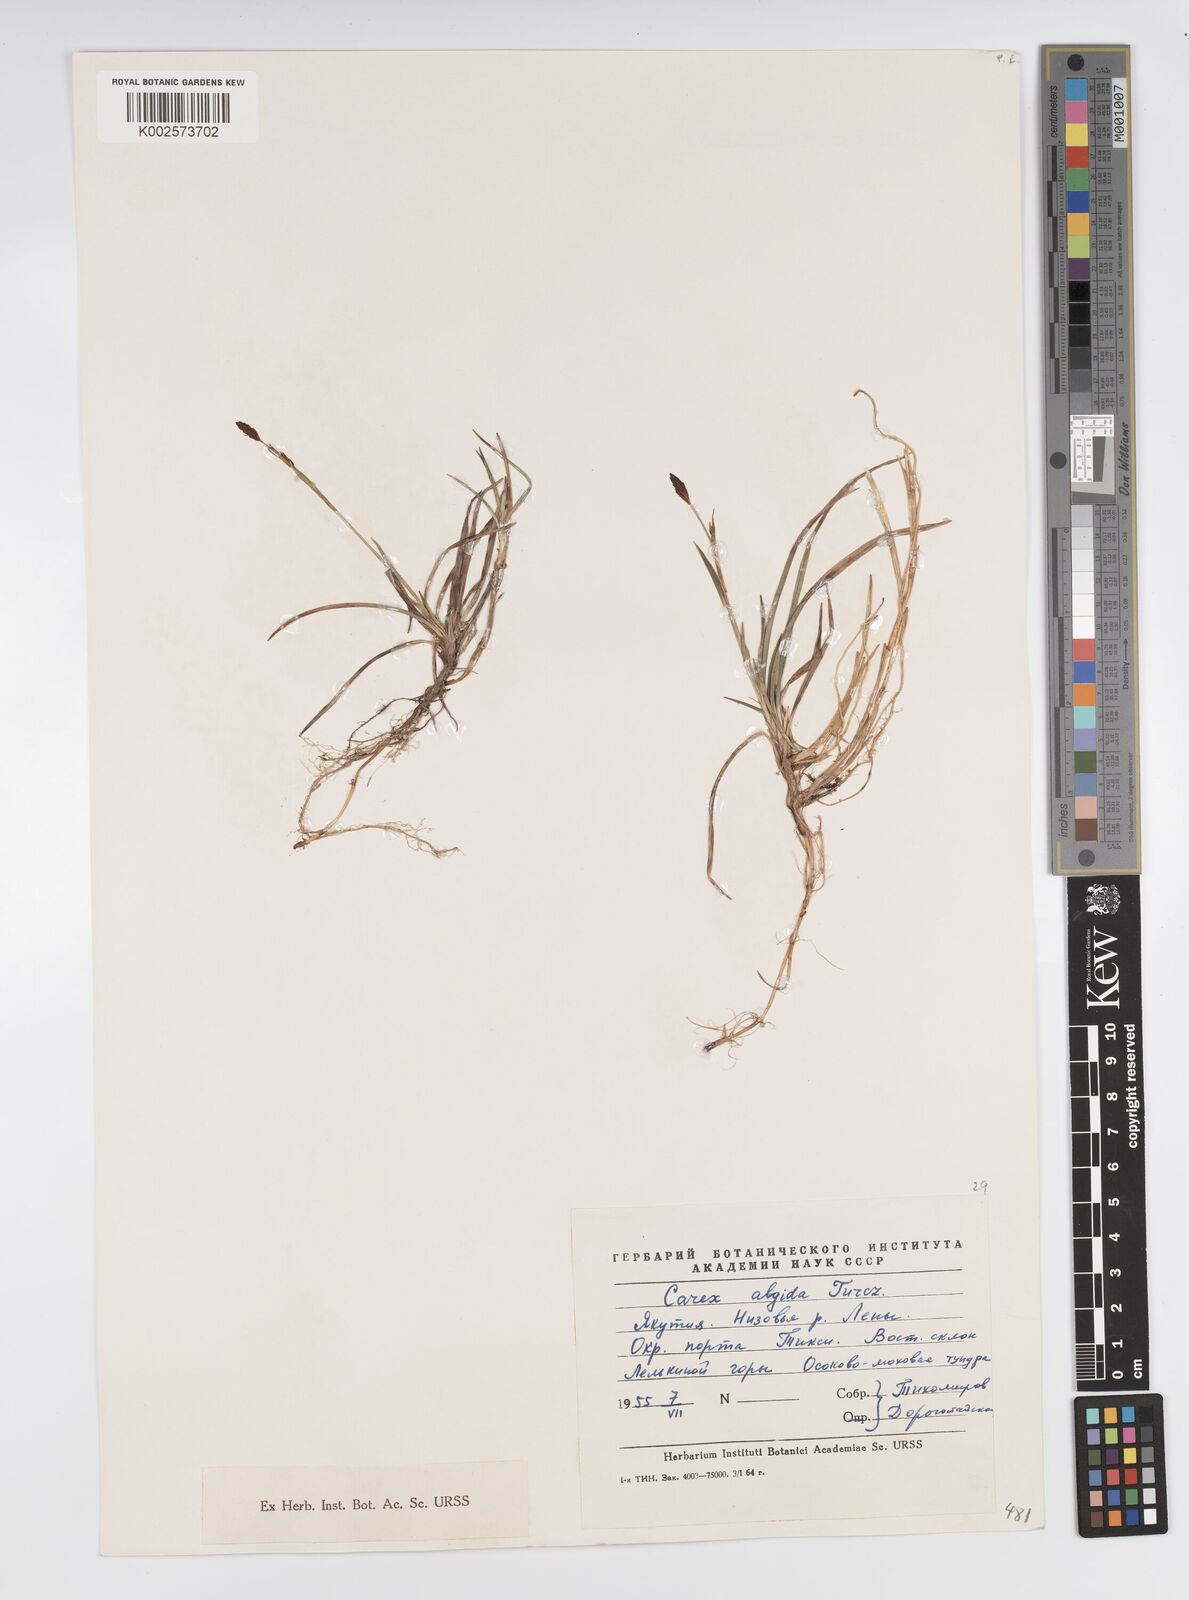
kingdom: Plantae
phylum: Tracheophyta
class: Liliopsida
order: Poales
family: Cyperaceae
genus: Carex
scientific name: Carex panicea
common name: Carnation sedge
